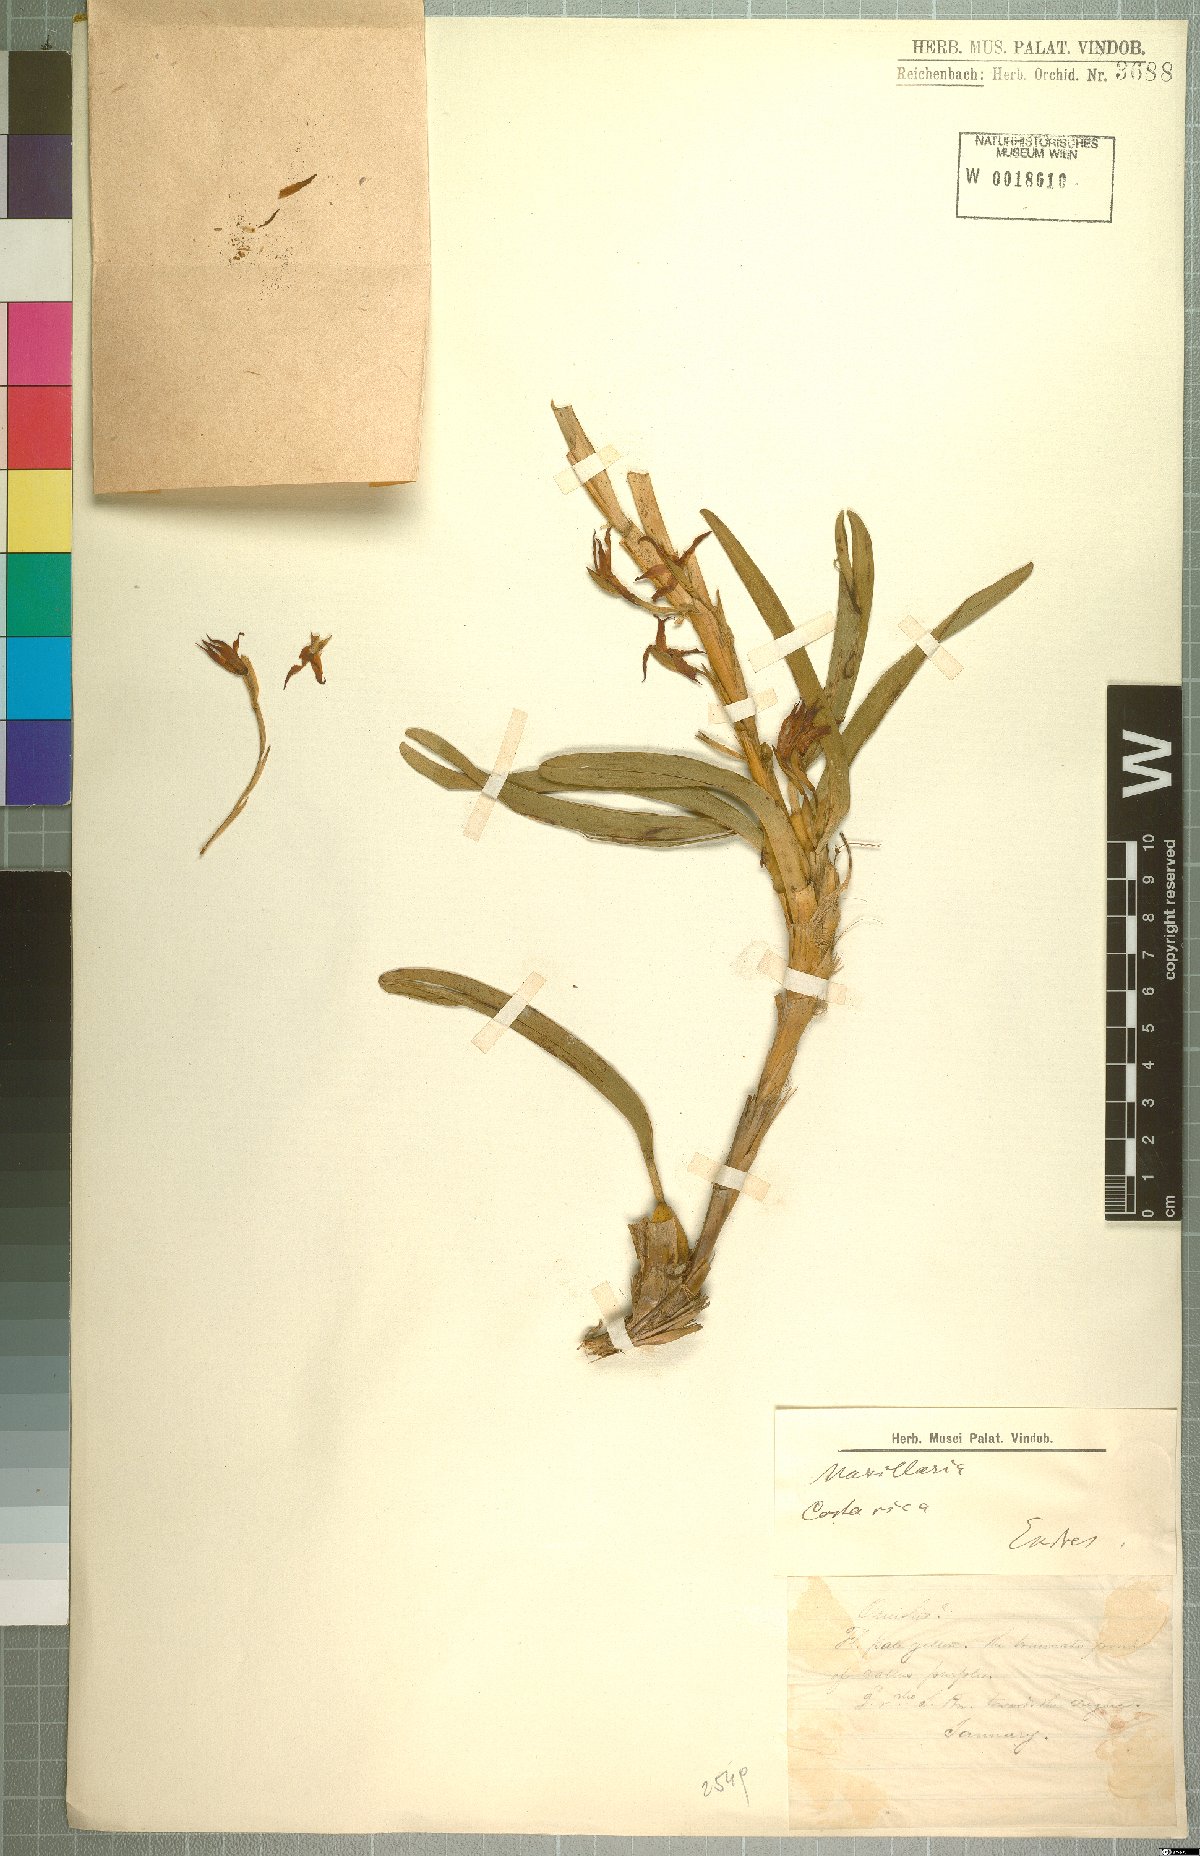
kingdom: Plantae
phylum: Tracheophyta
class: Liliopsida
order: Asparagales
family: Orchidaceae
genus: Maxillaria
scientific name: Maxillaria
